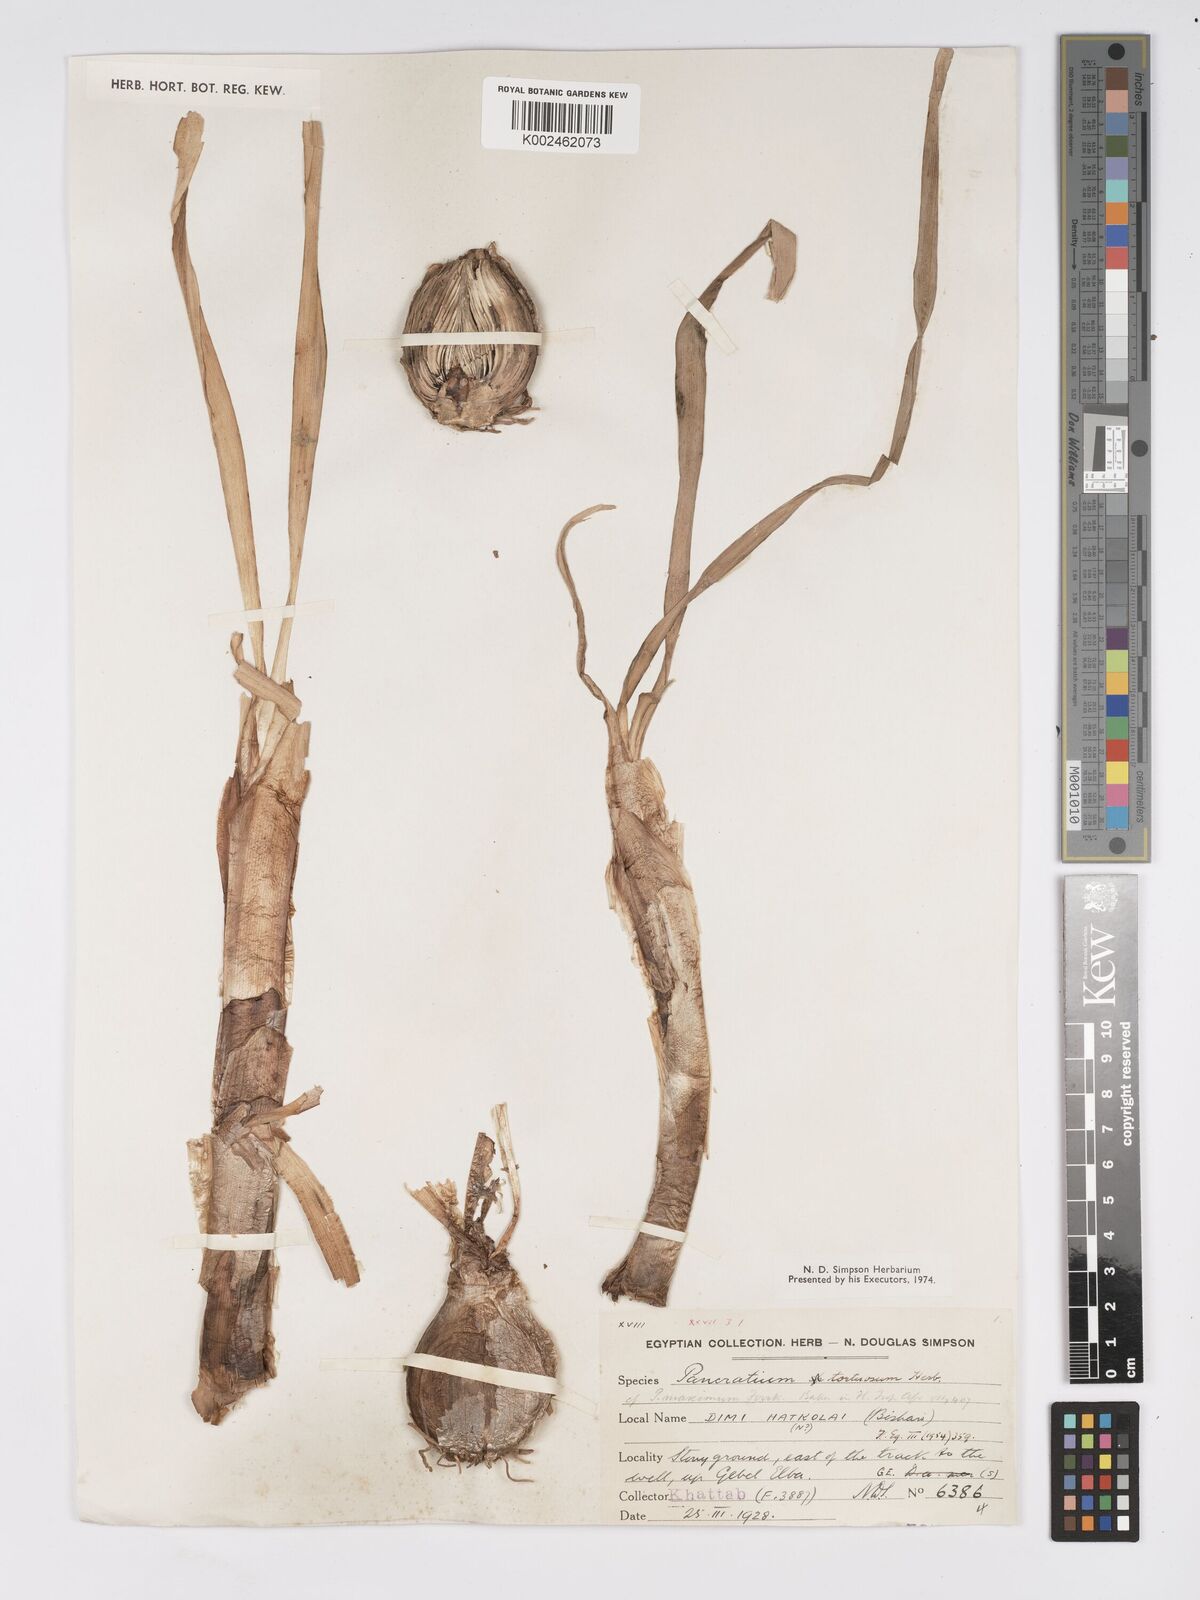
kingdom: Plantae
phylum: Tracheophyta
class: Liliopsida
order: Asparagales
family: Amaryllidaceae
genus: Pancratium
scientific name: Pancratium tortuosum
